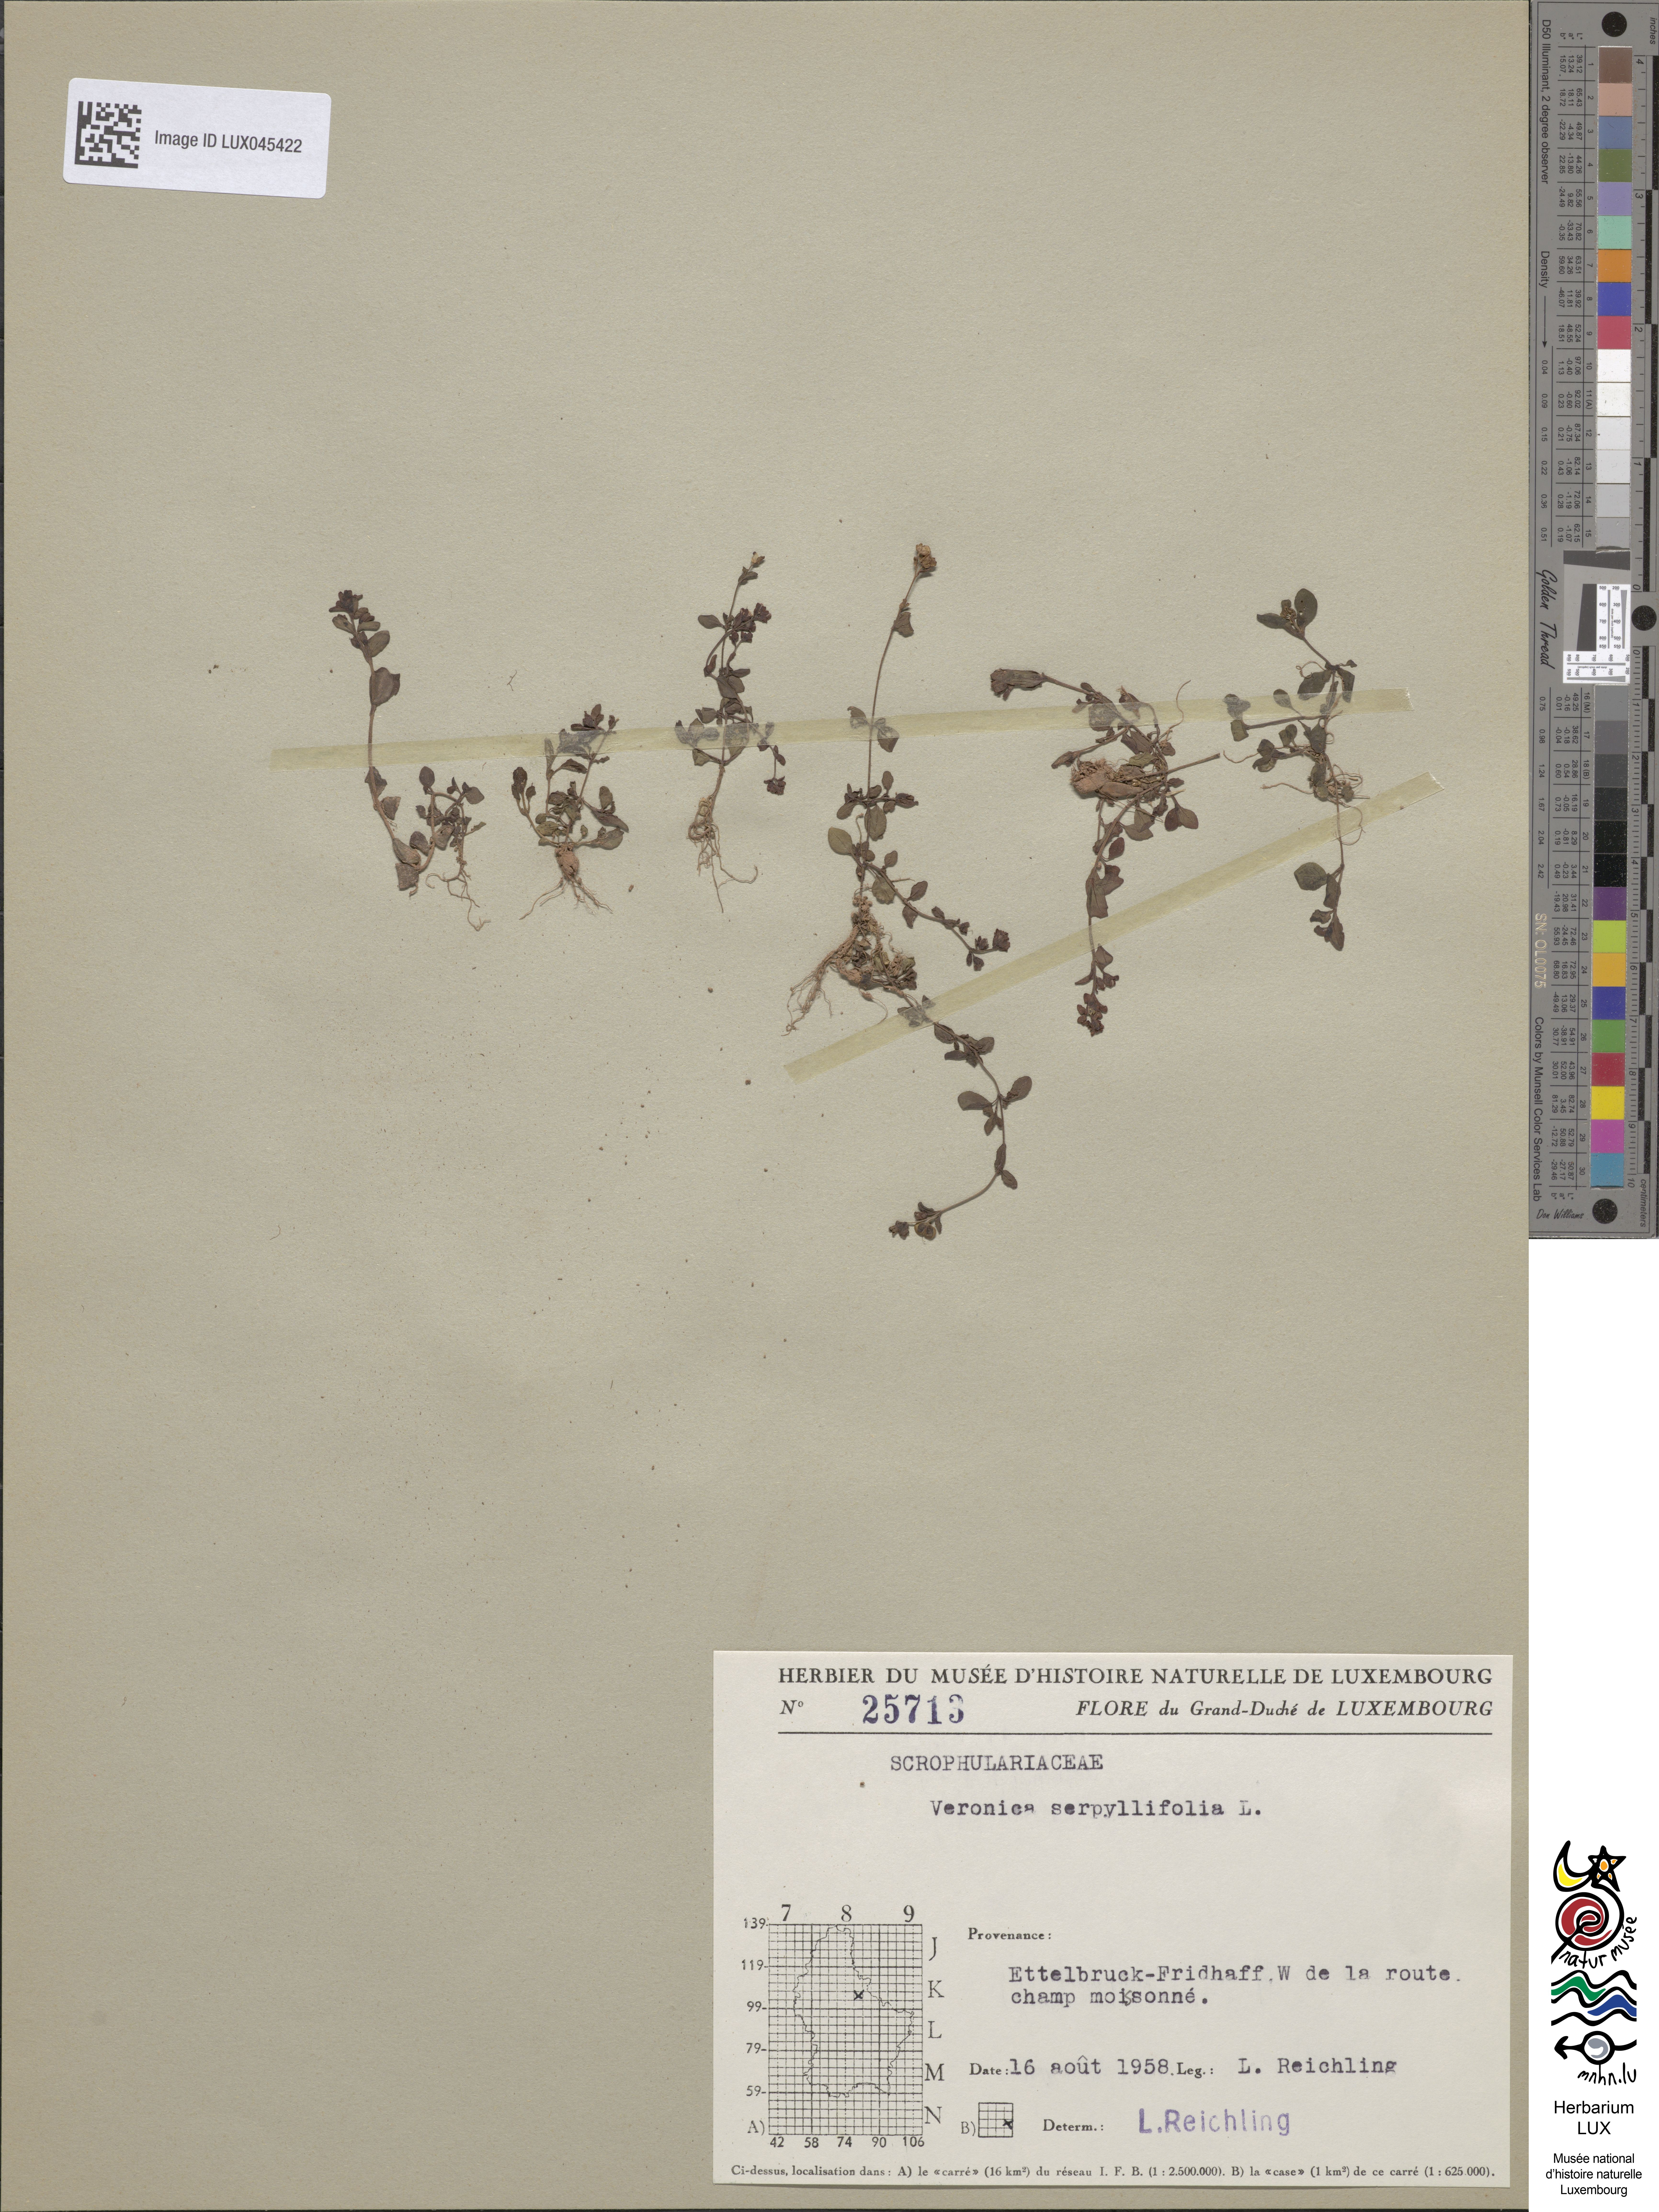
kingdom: Plantae
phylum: Tracheophyta
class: Magnoliopsida
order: Lamiales
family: Plantaginaceae
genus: Veronica
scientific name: Veronica serpyllifolia
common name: Thyme-leaved speedwell
